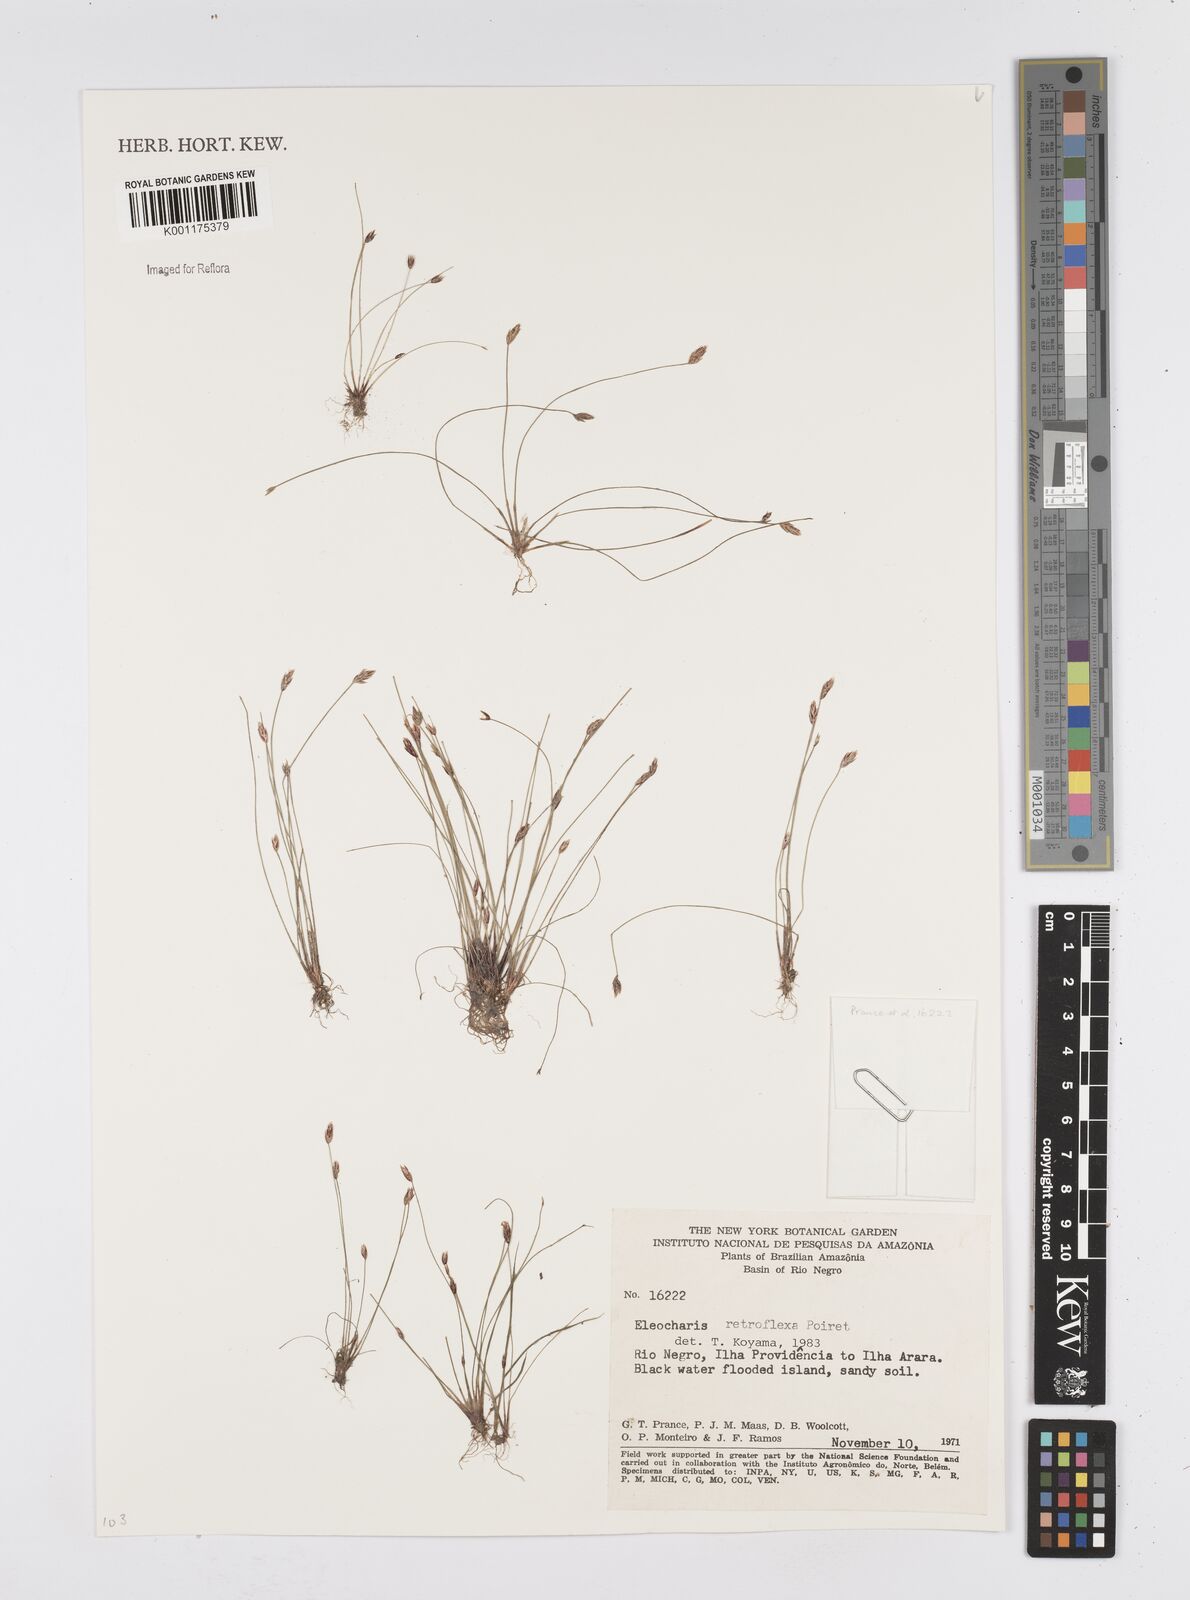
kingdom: Plantae
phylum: Tracheophyta
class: Liliopsida
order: Poales
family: Cyperaceae
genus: Eleocharis
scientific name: Eleocharis retroflexa
